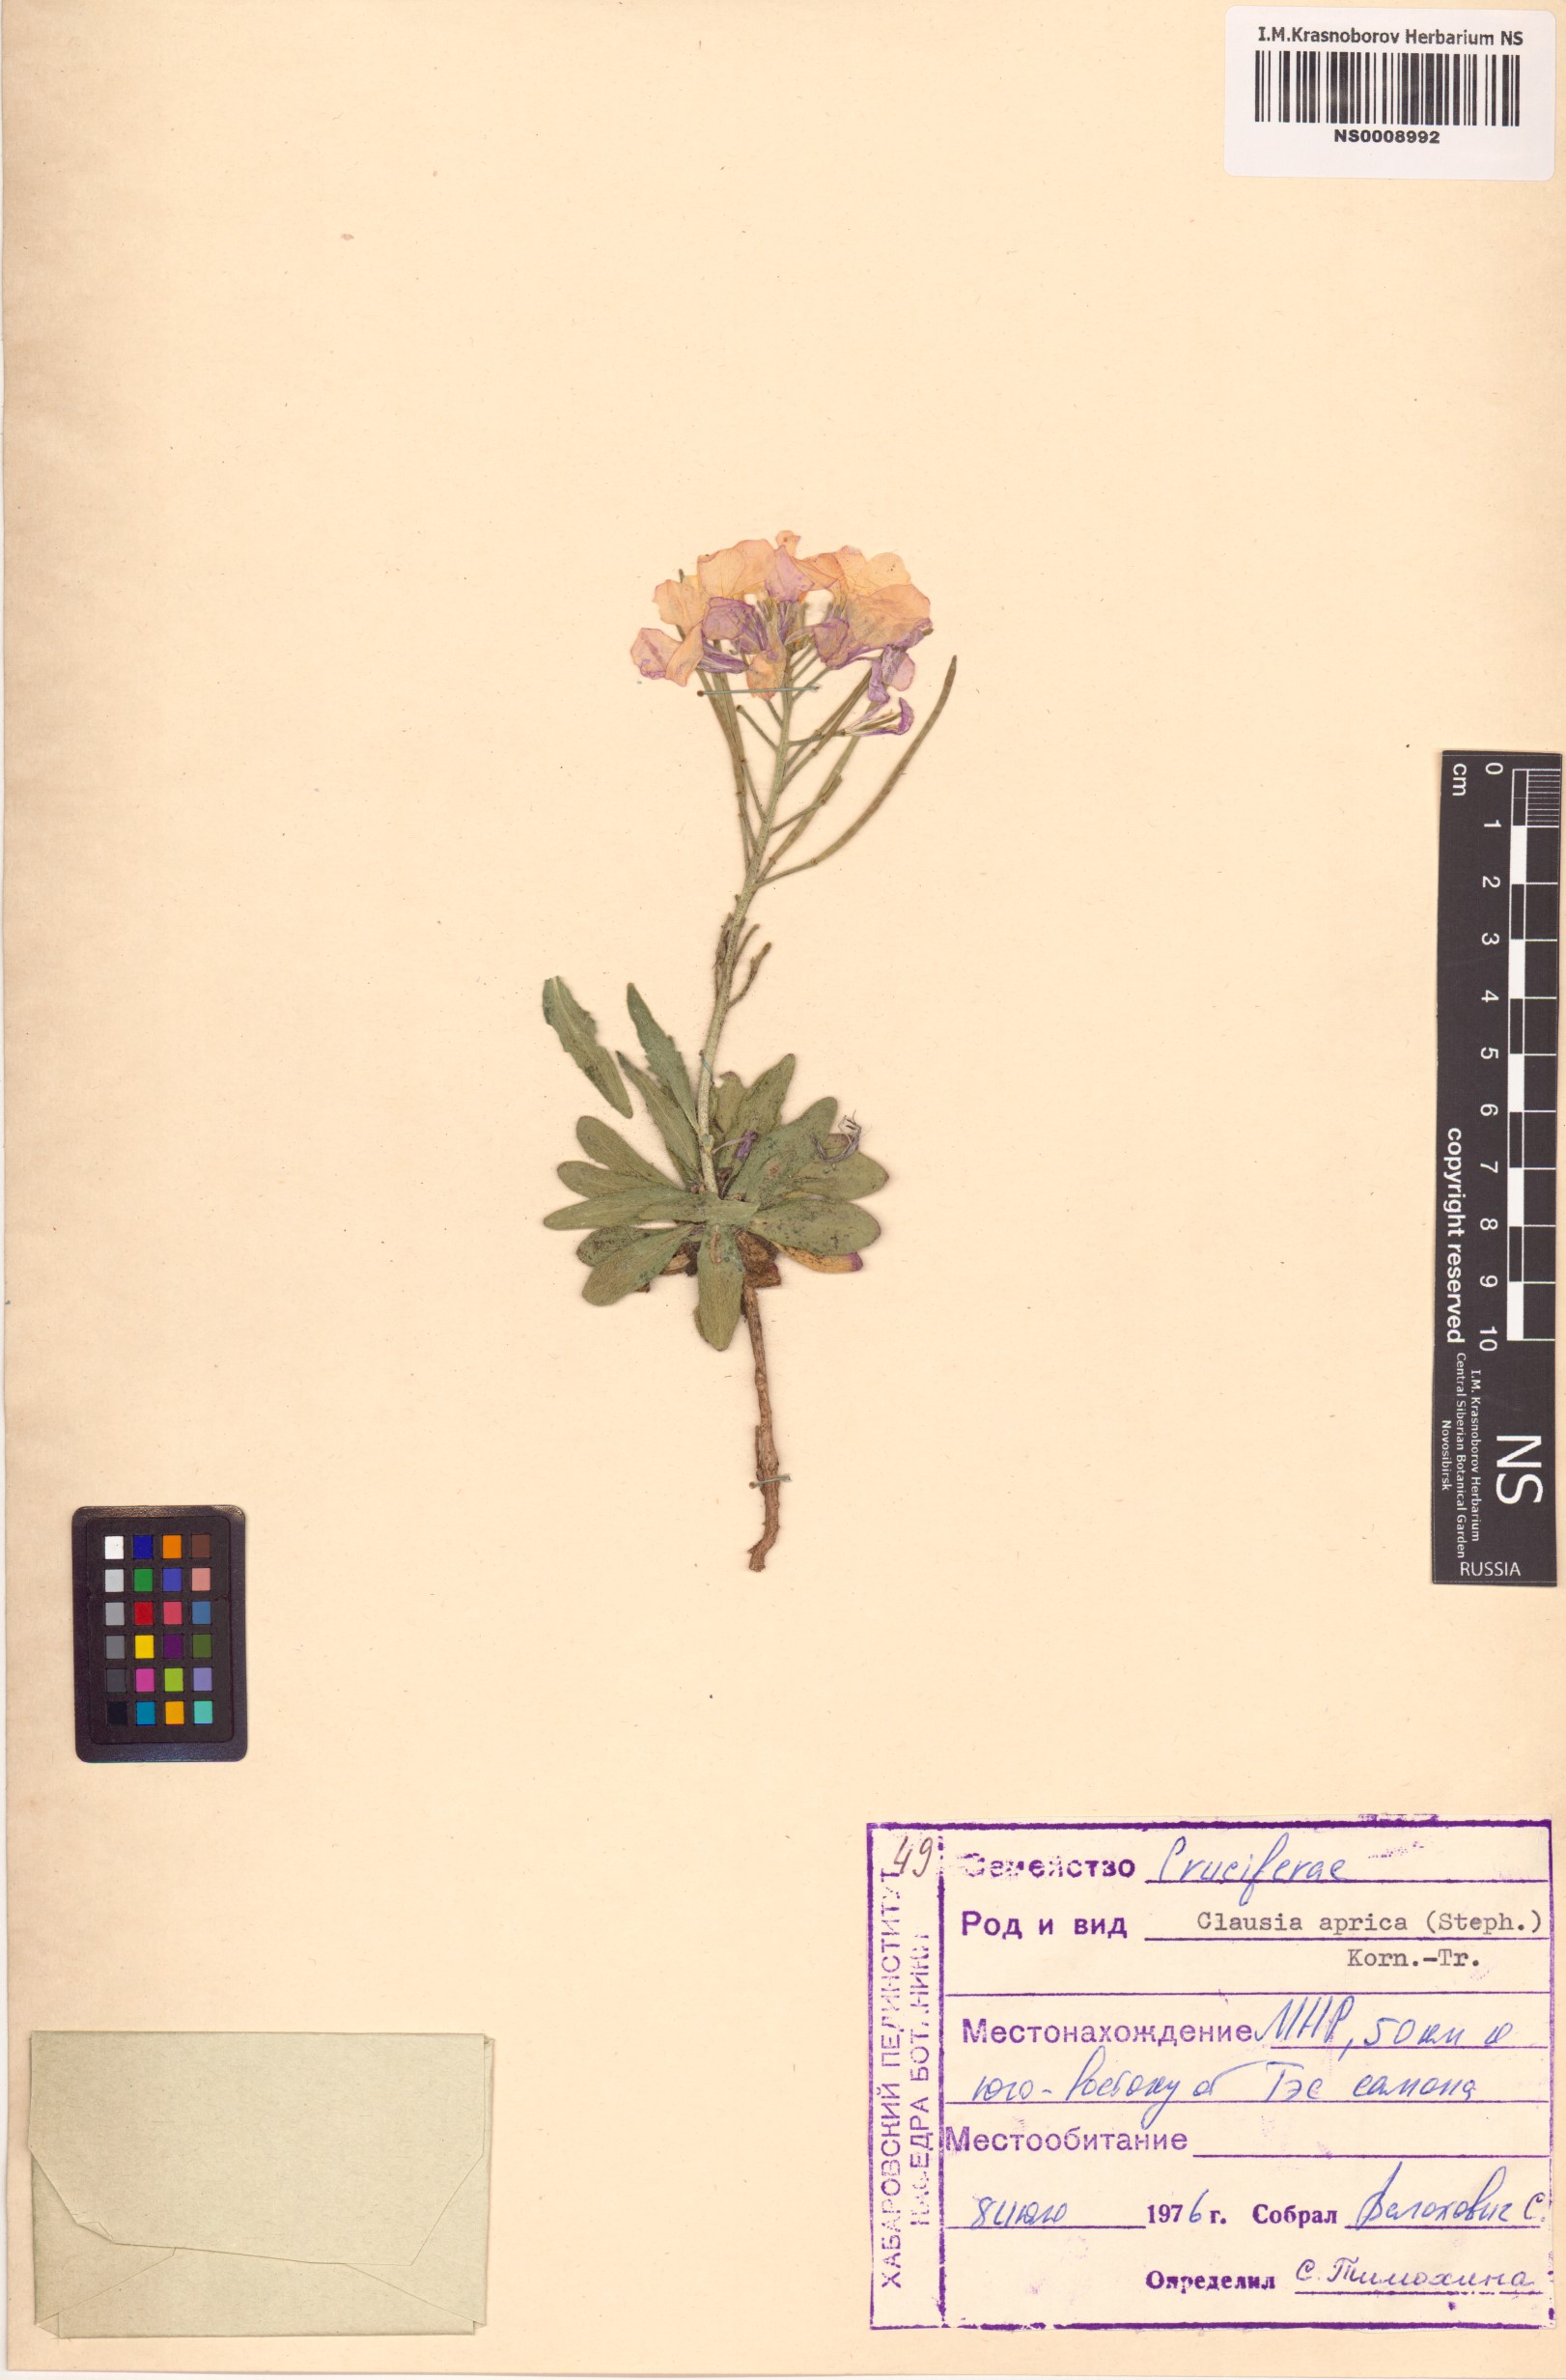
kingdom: Plantae
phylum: Tracheophyta
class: Magnoliopsida
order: Brassicales
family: Brassicaceae
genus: Clausia
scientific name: Clausia aprica
